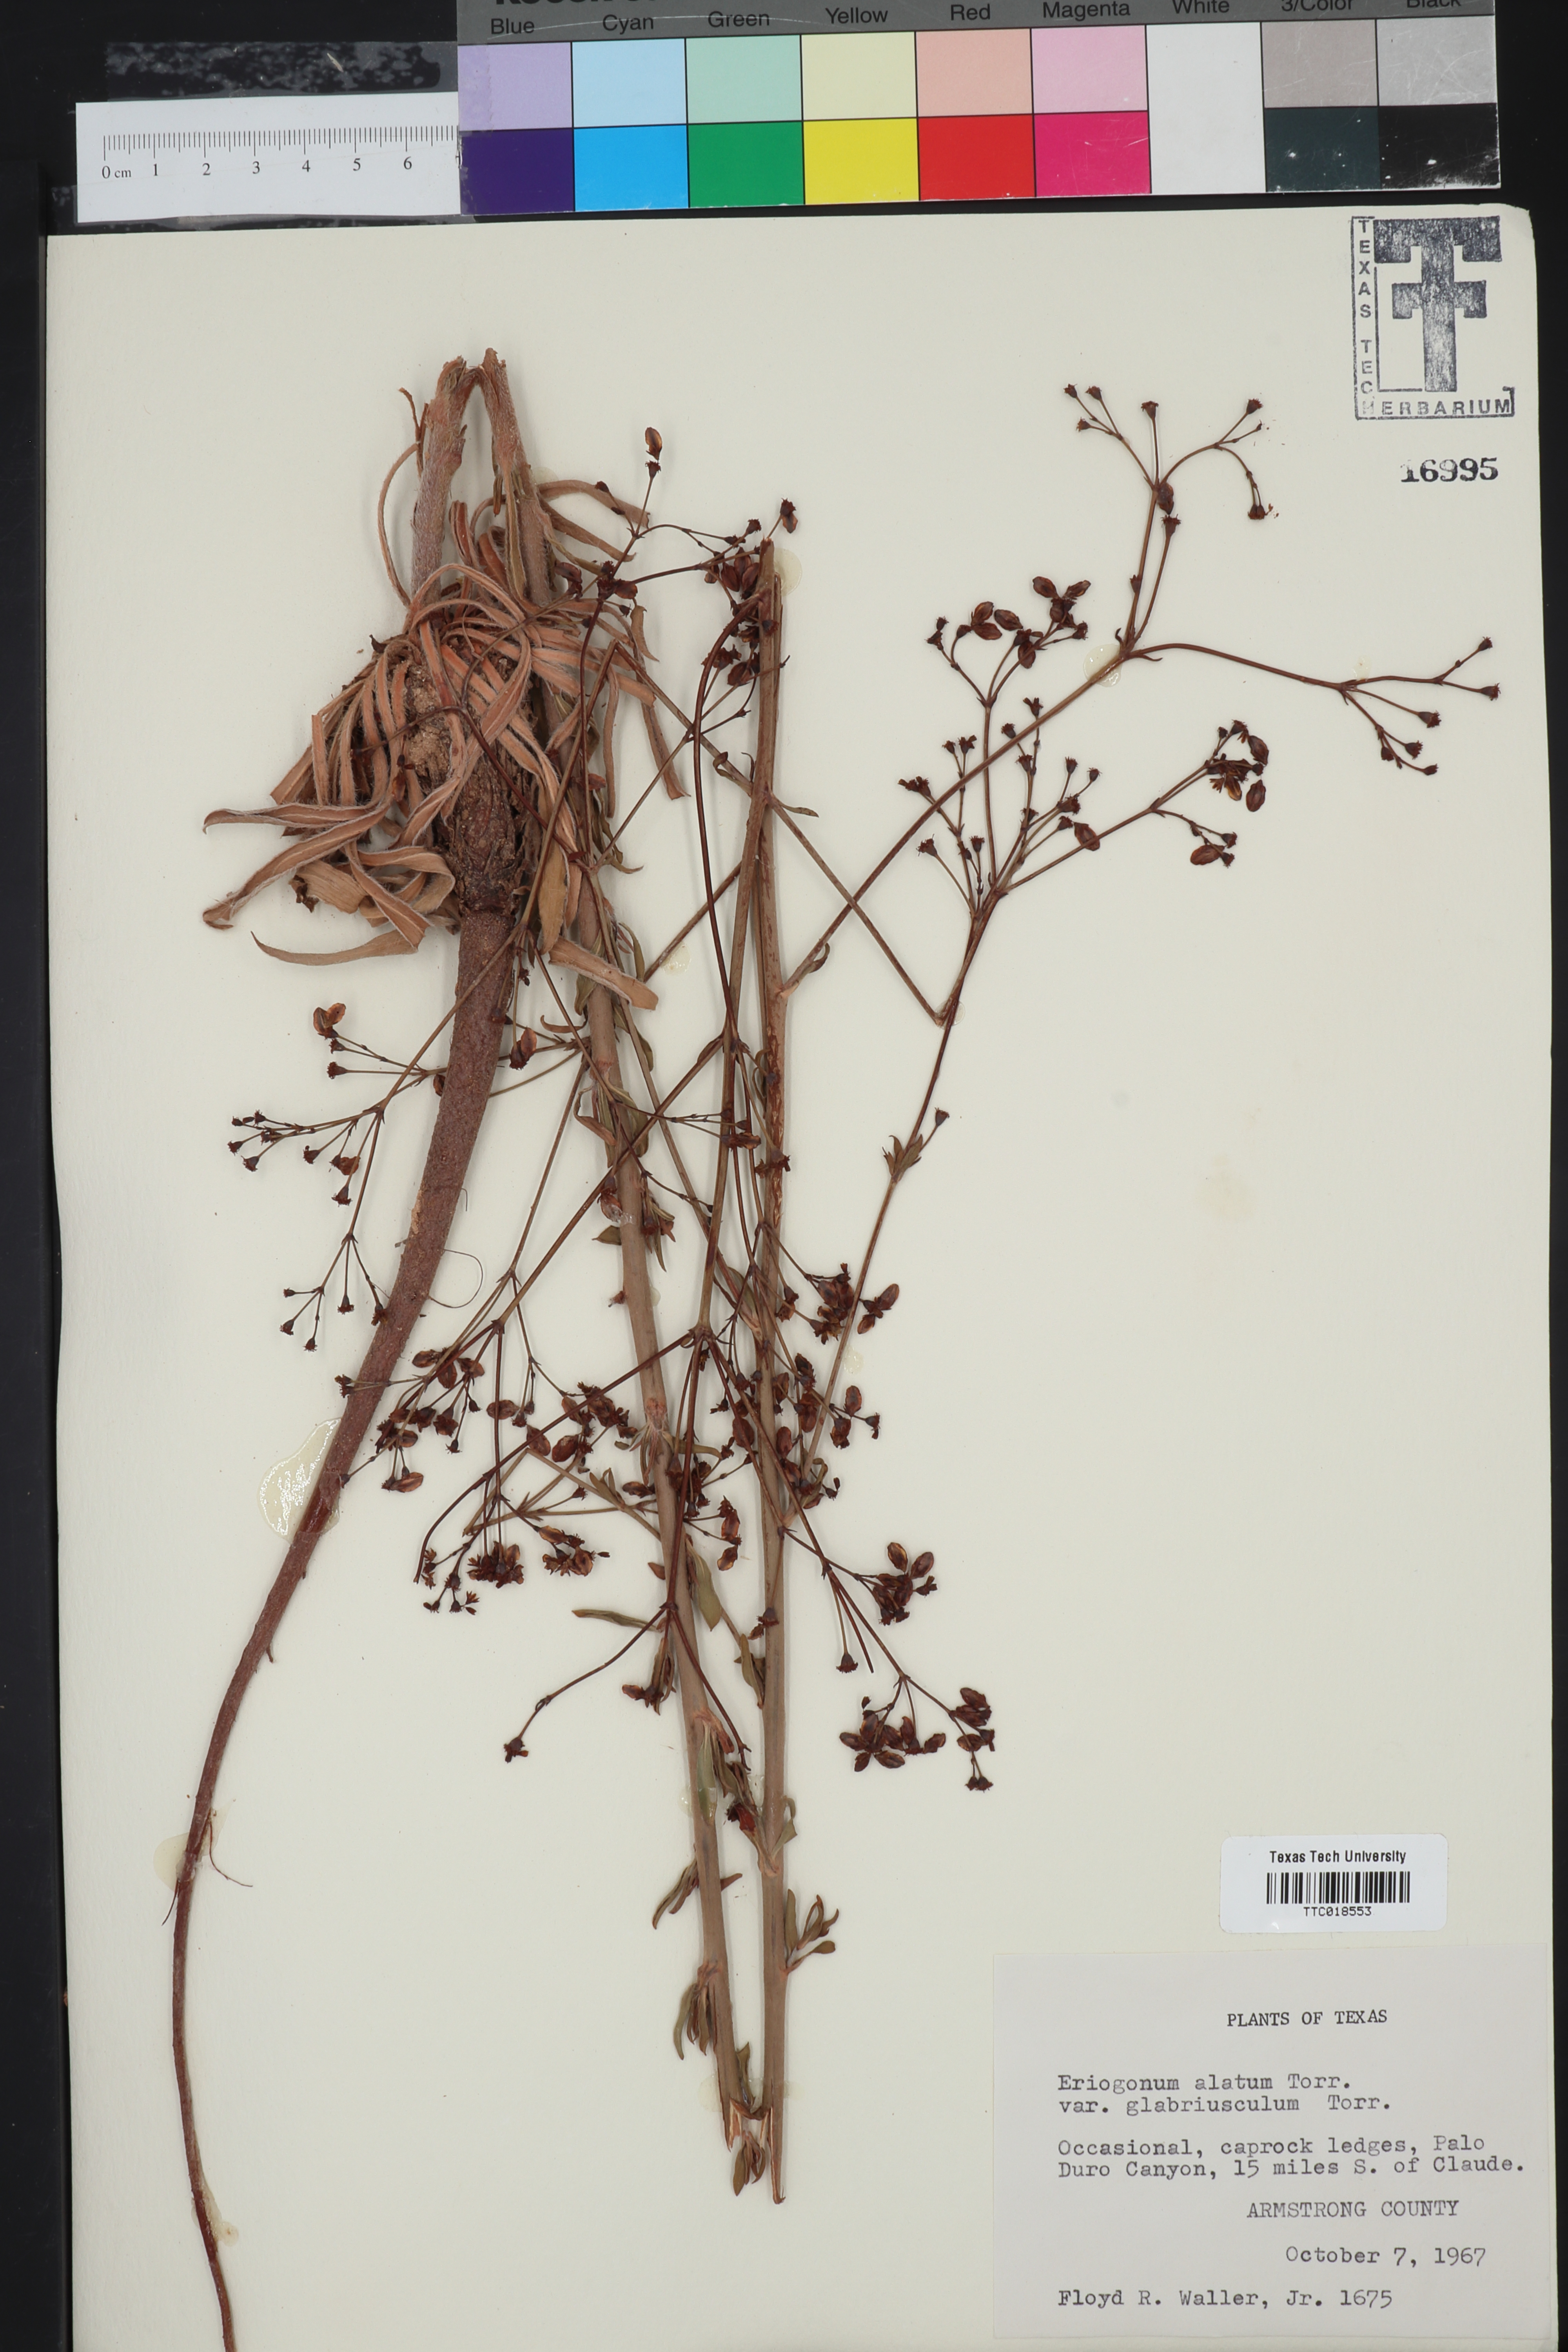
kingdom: Plantae
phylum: Tracheophyta
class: Magnoliopsida
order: Caryophyllales
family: Polygonaceae
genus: Eriogonum
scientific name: Eriogonum alatum
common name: Winged eriogonum
